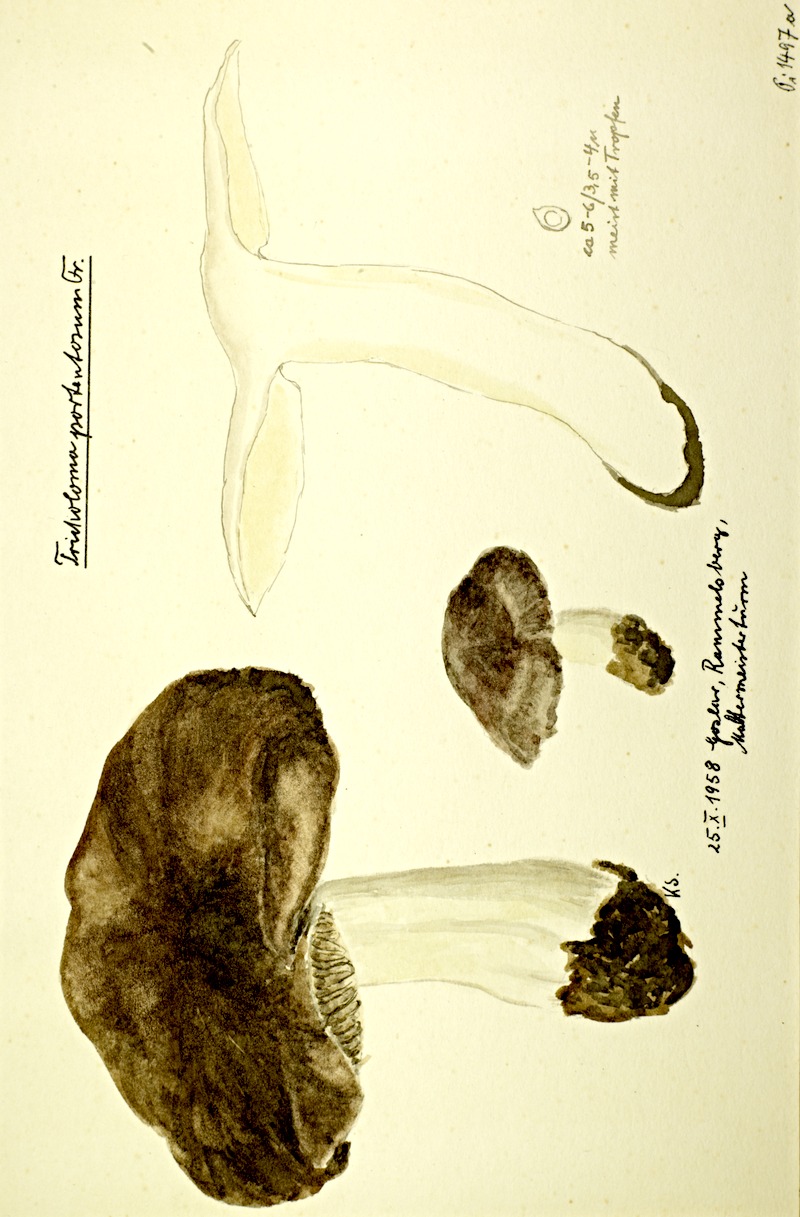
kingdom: Fungi
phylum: Basidiomycota
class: Agaricomycetes
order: Agaricales
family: Tricholomataceae
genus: Tricholoma
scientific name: Tricholoma portentosum
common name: Coalman
